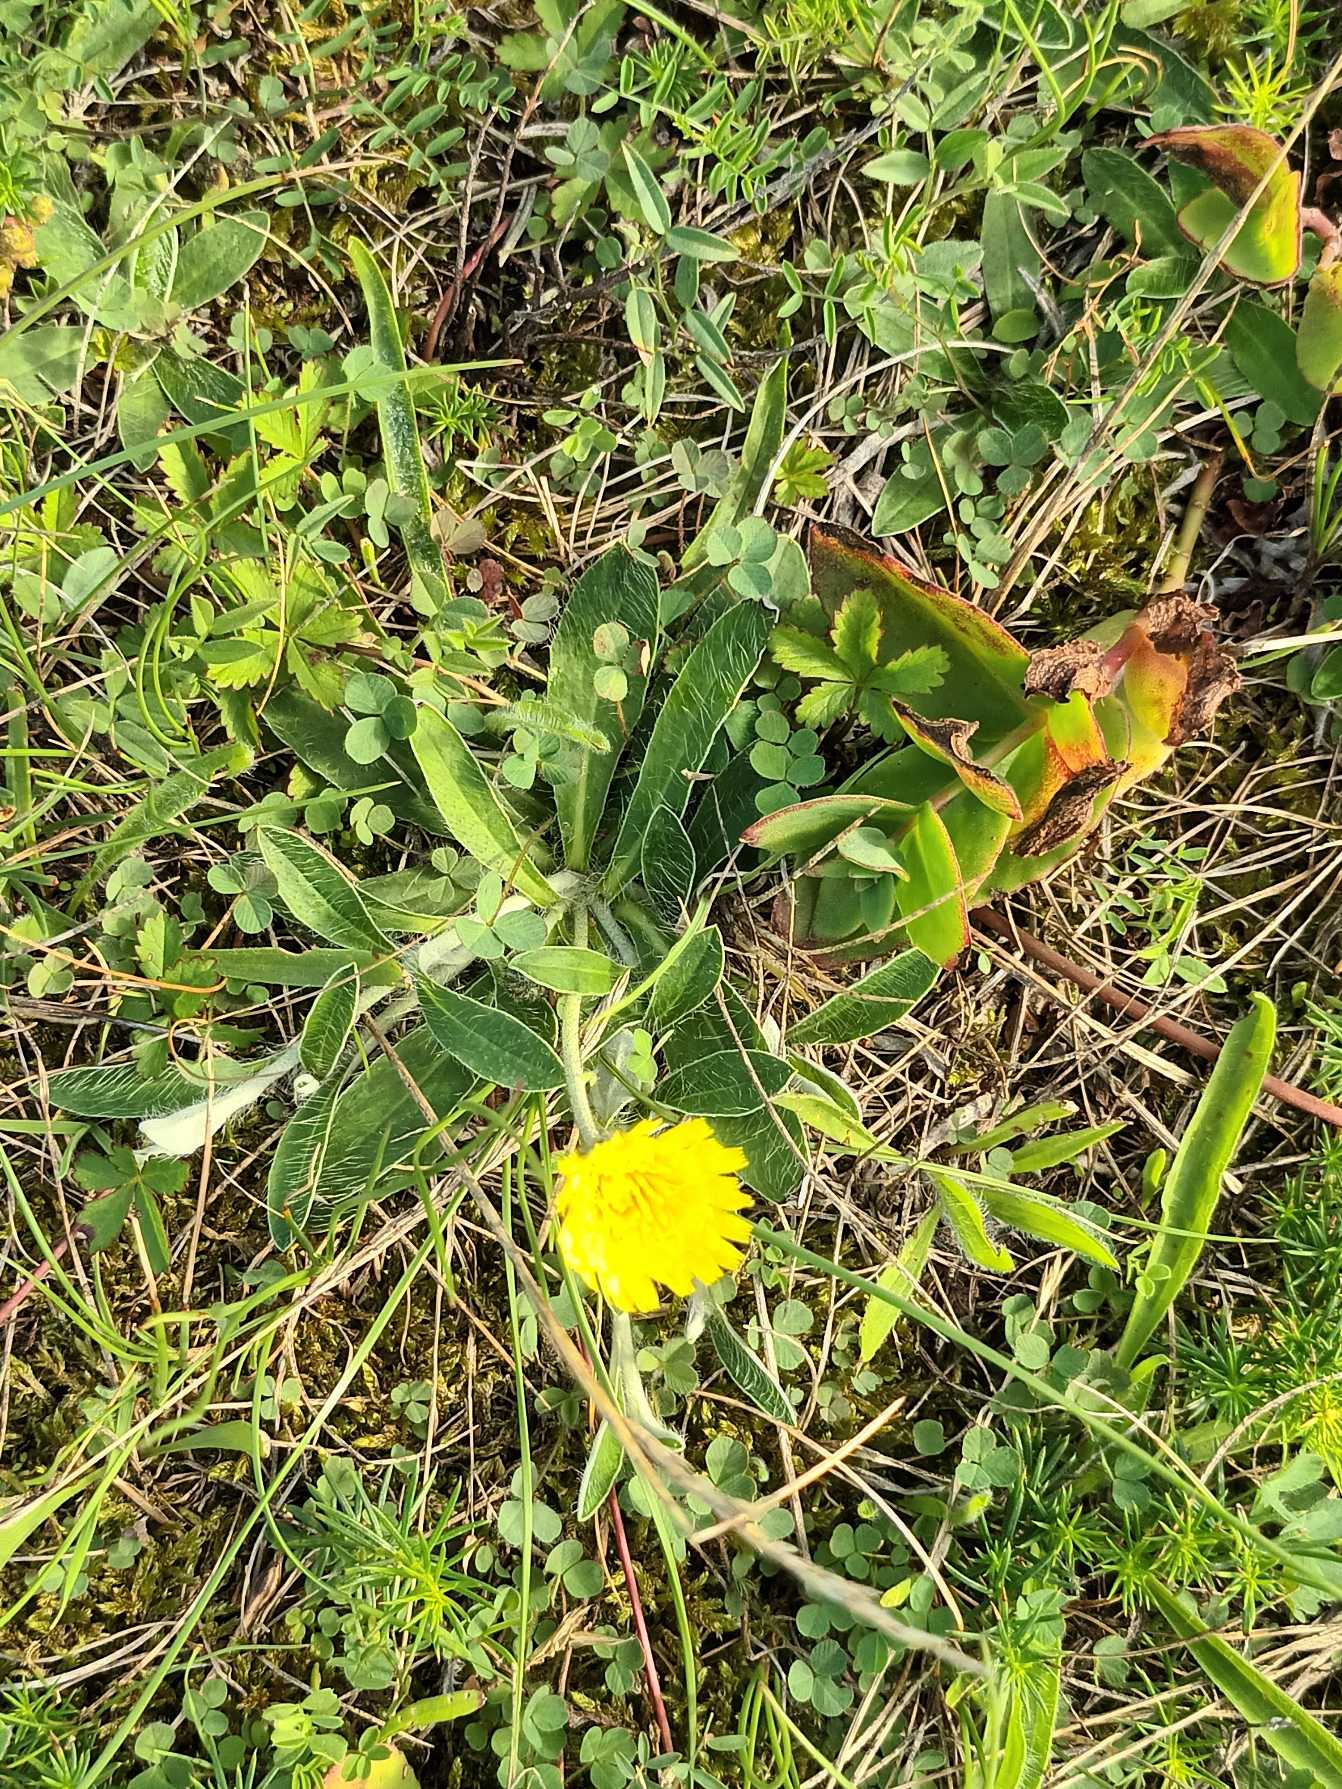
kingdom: Plantae
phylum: Tracheophyta
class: Magnoliopsida
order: Asterales
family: Asteraceae
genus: Pilosella
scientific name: Pilosella officinarum
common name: Håret høgeurt
